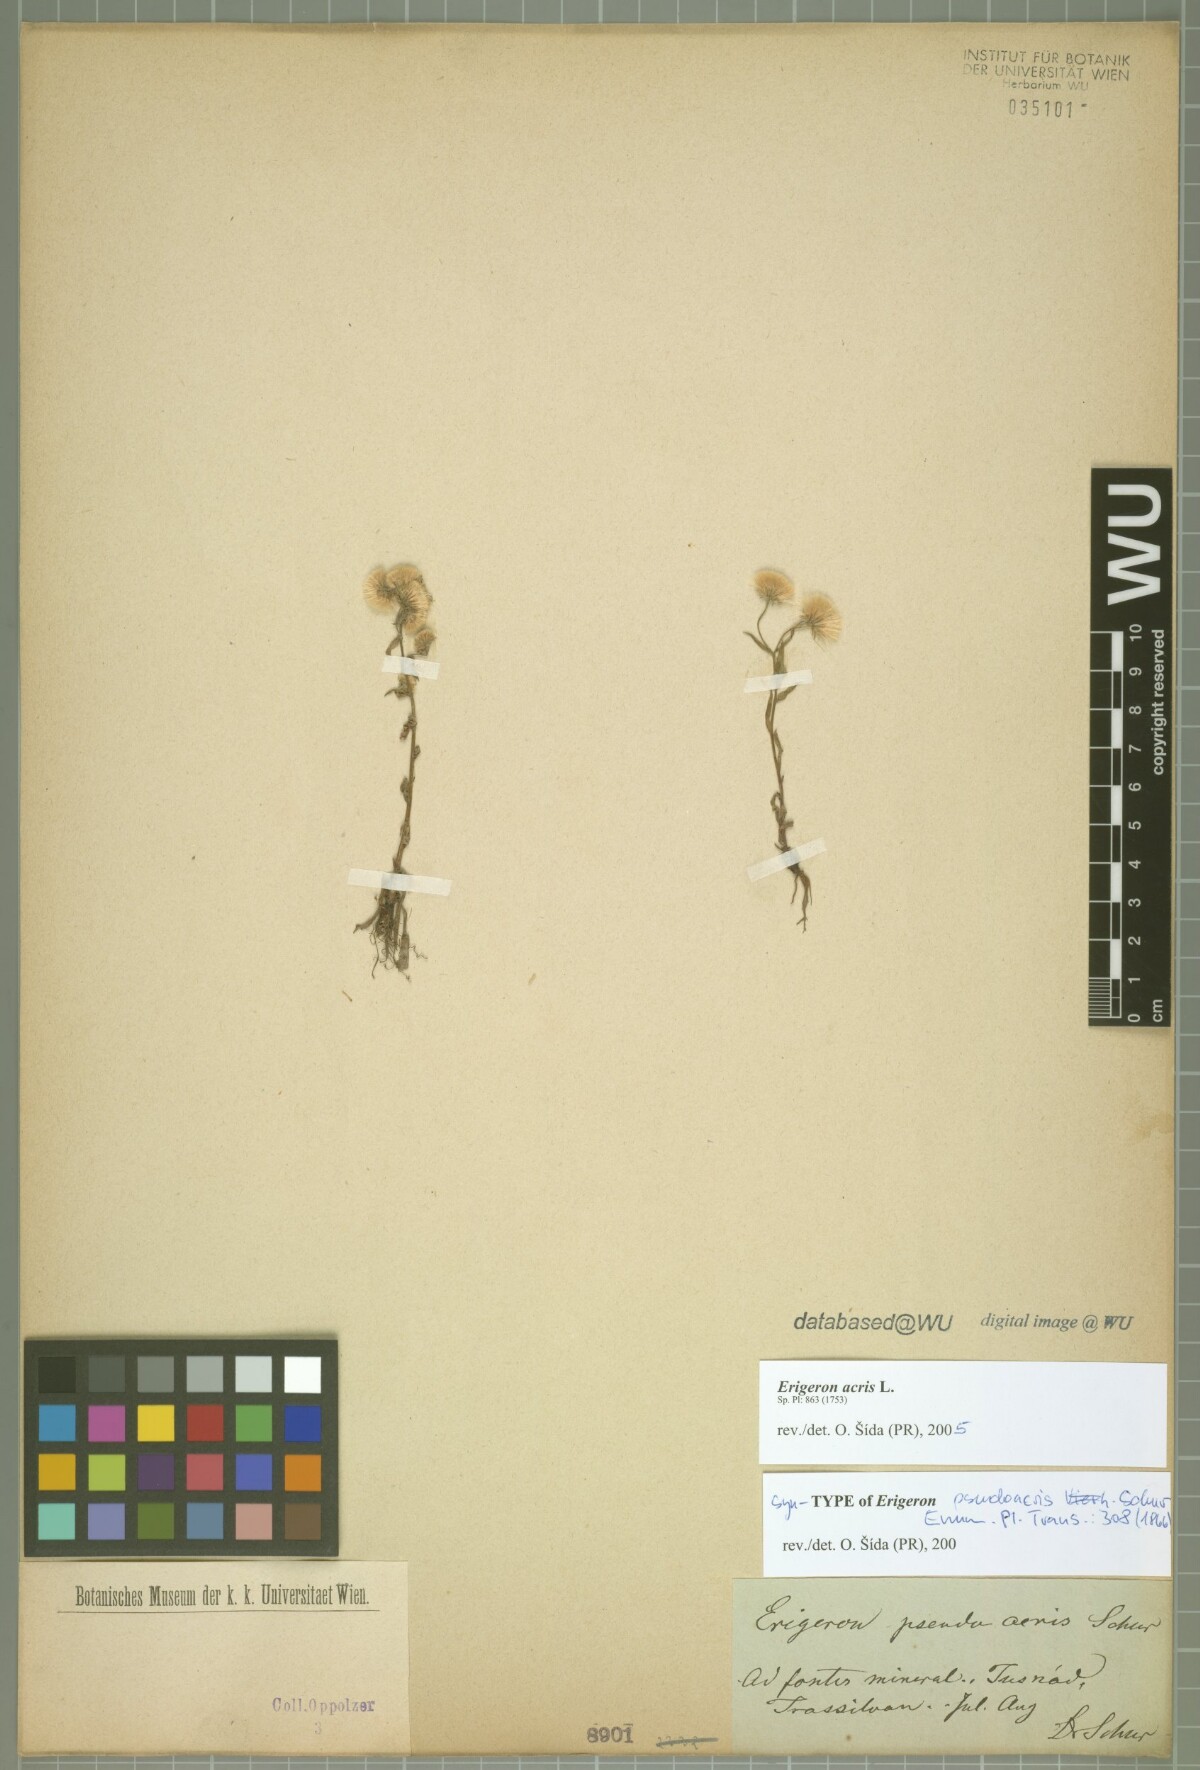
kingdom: Plantae
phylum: Tracheophyta
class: Magnoliopsida
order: Asterales
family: Asteraceae
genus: Erigeron
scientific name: Erigeron acris
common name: Blue fleabane
